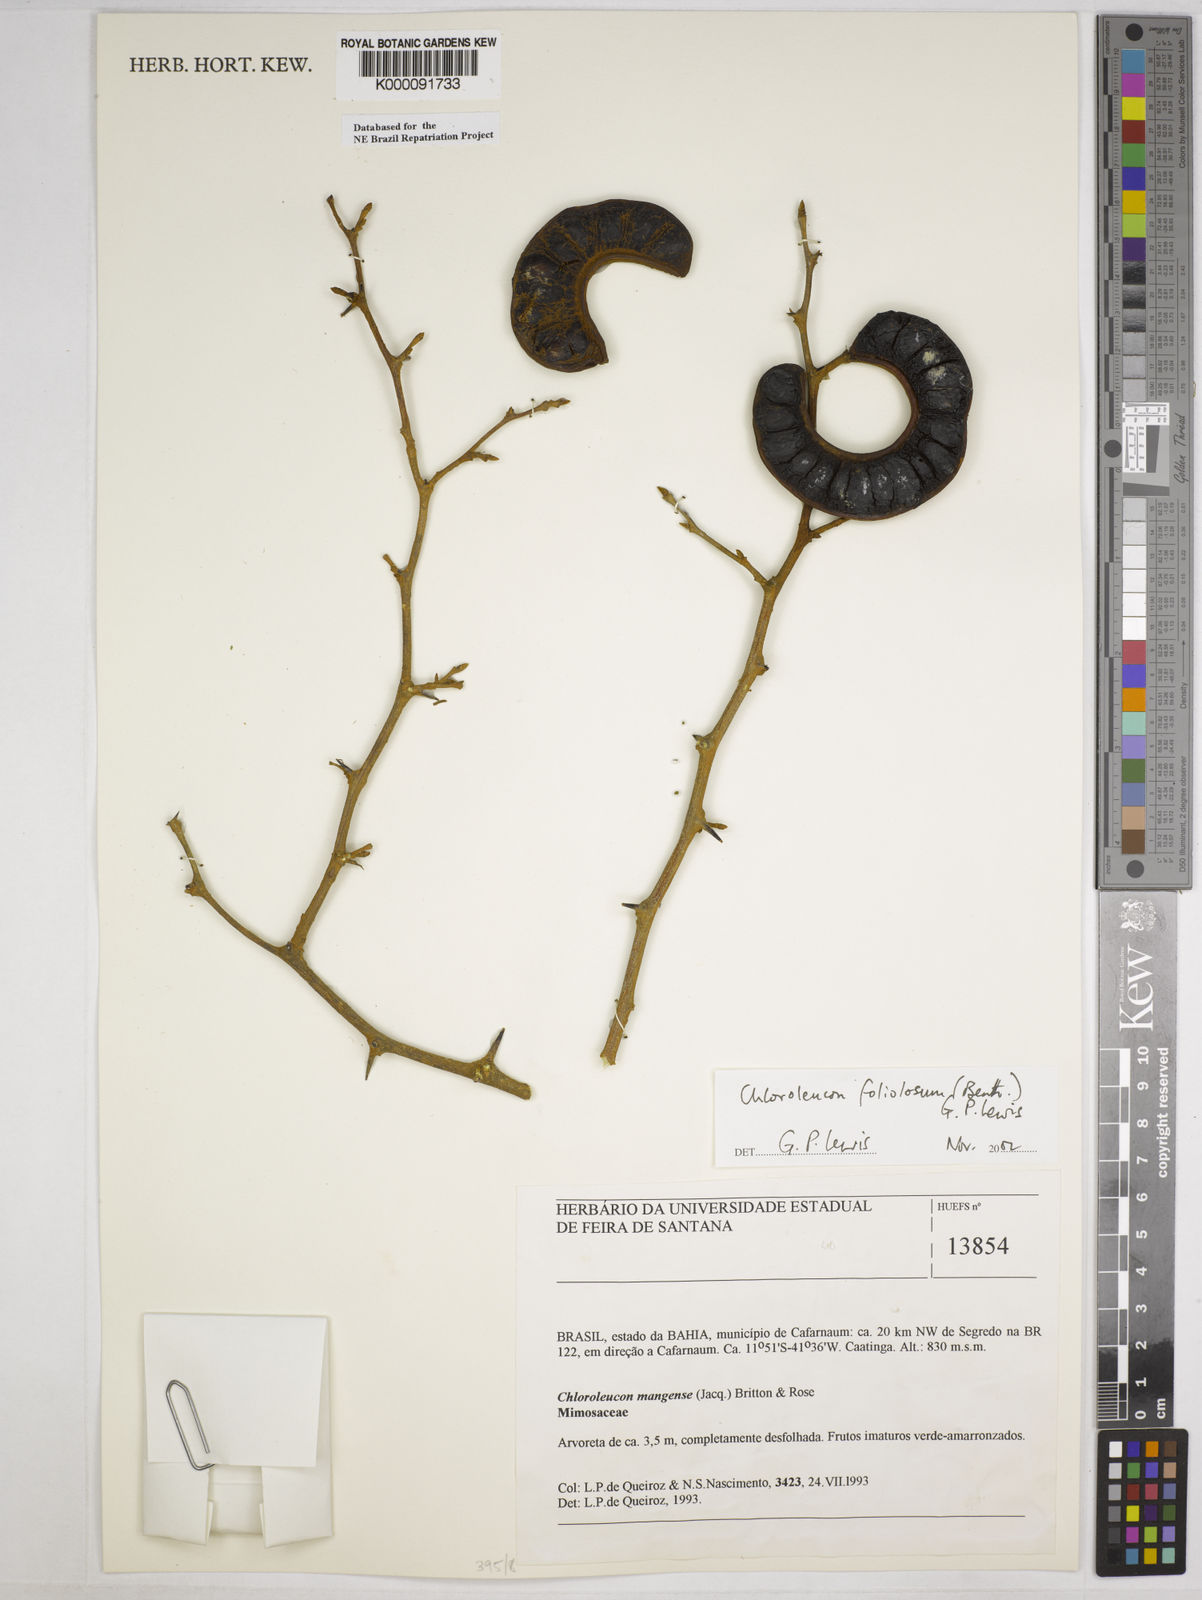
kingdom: Plantae
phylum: Tracheophyta
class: Magnoliopsida
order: Fabales
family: Fabaceae
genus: Chloroleucon
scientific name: Chloroleucon foliolosum
